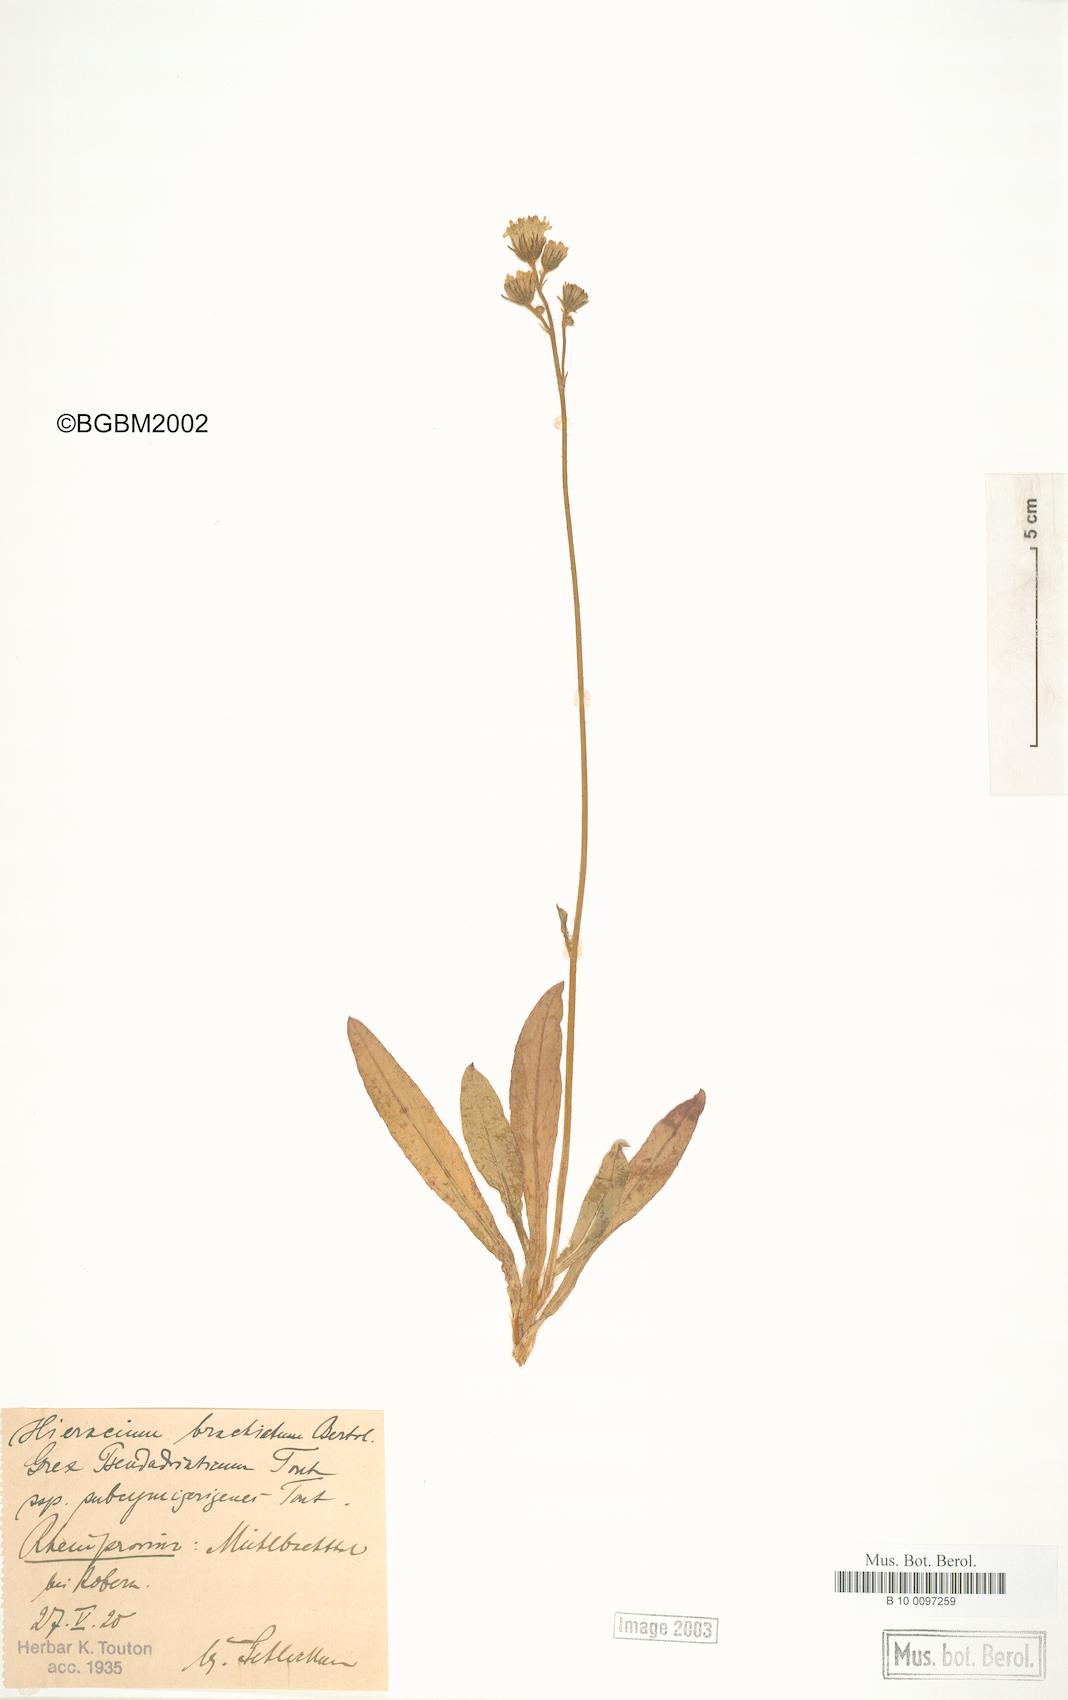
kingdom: Plantae
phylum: Tracheophyta
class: Magnoliopsida
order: Asterales
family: Asteraceae
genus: Pilosella
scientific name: Pilosella acutifolia
